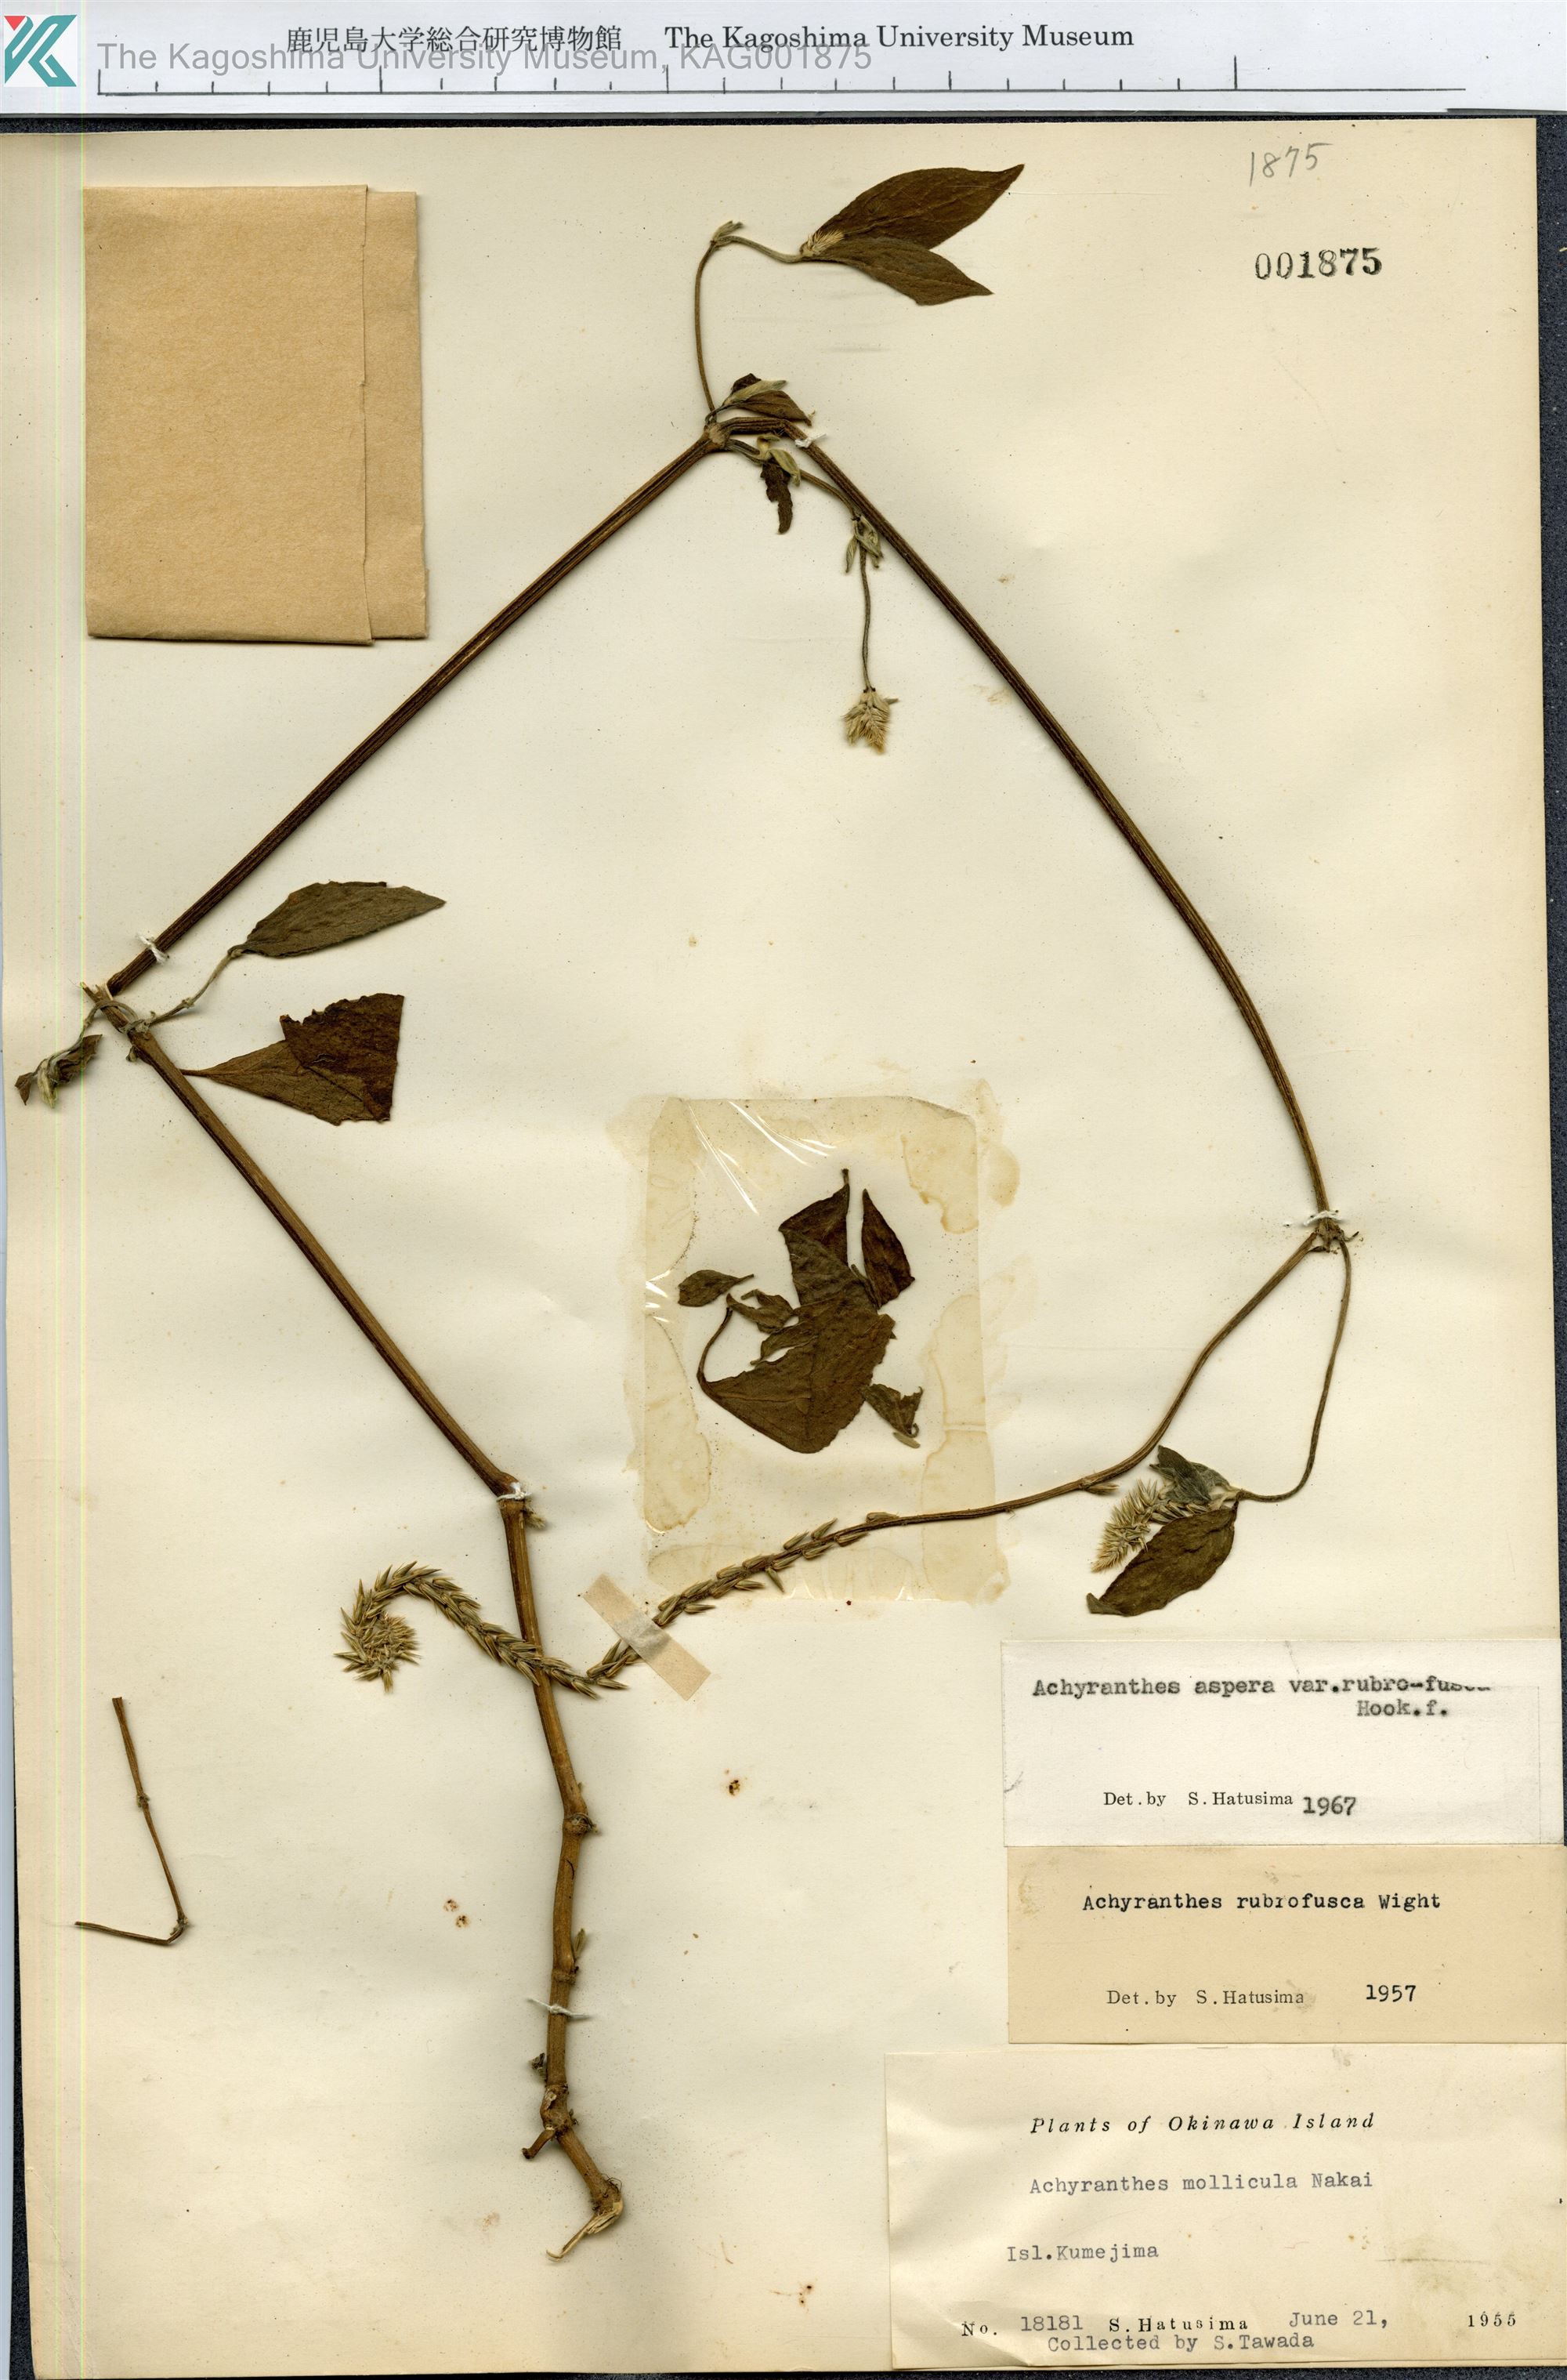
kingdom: Plantae
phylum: Tracheophyta
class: Magnoliopsida
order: Caryophyllales
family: Amaranthaceae
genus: Achyranthes
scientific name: Achyranthes aspera
